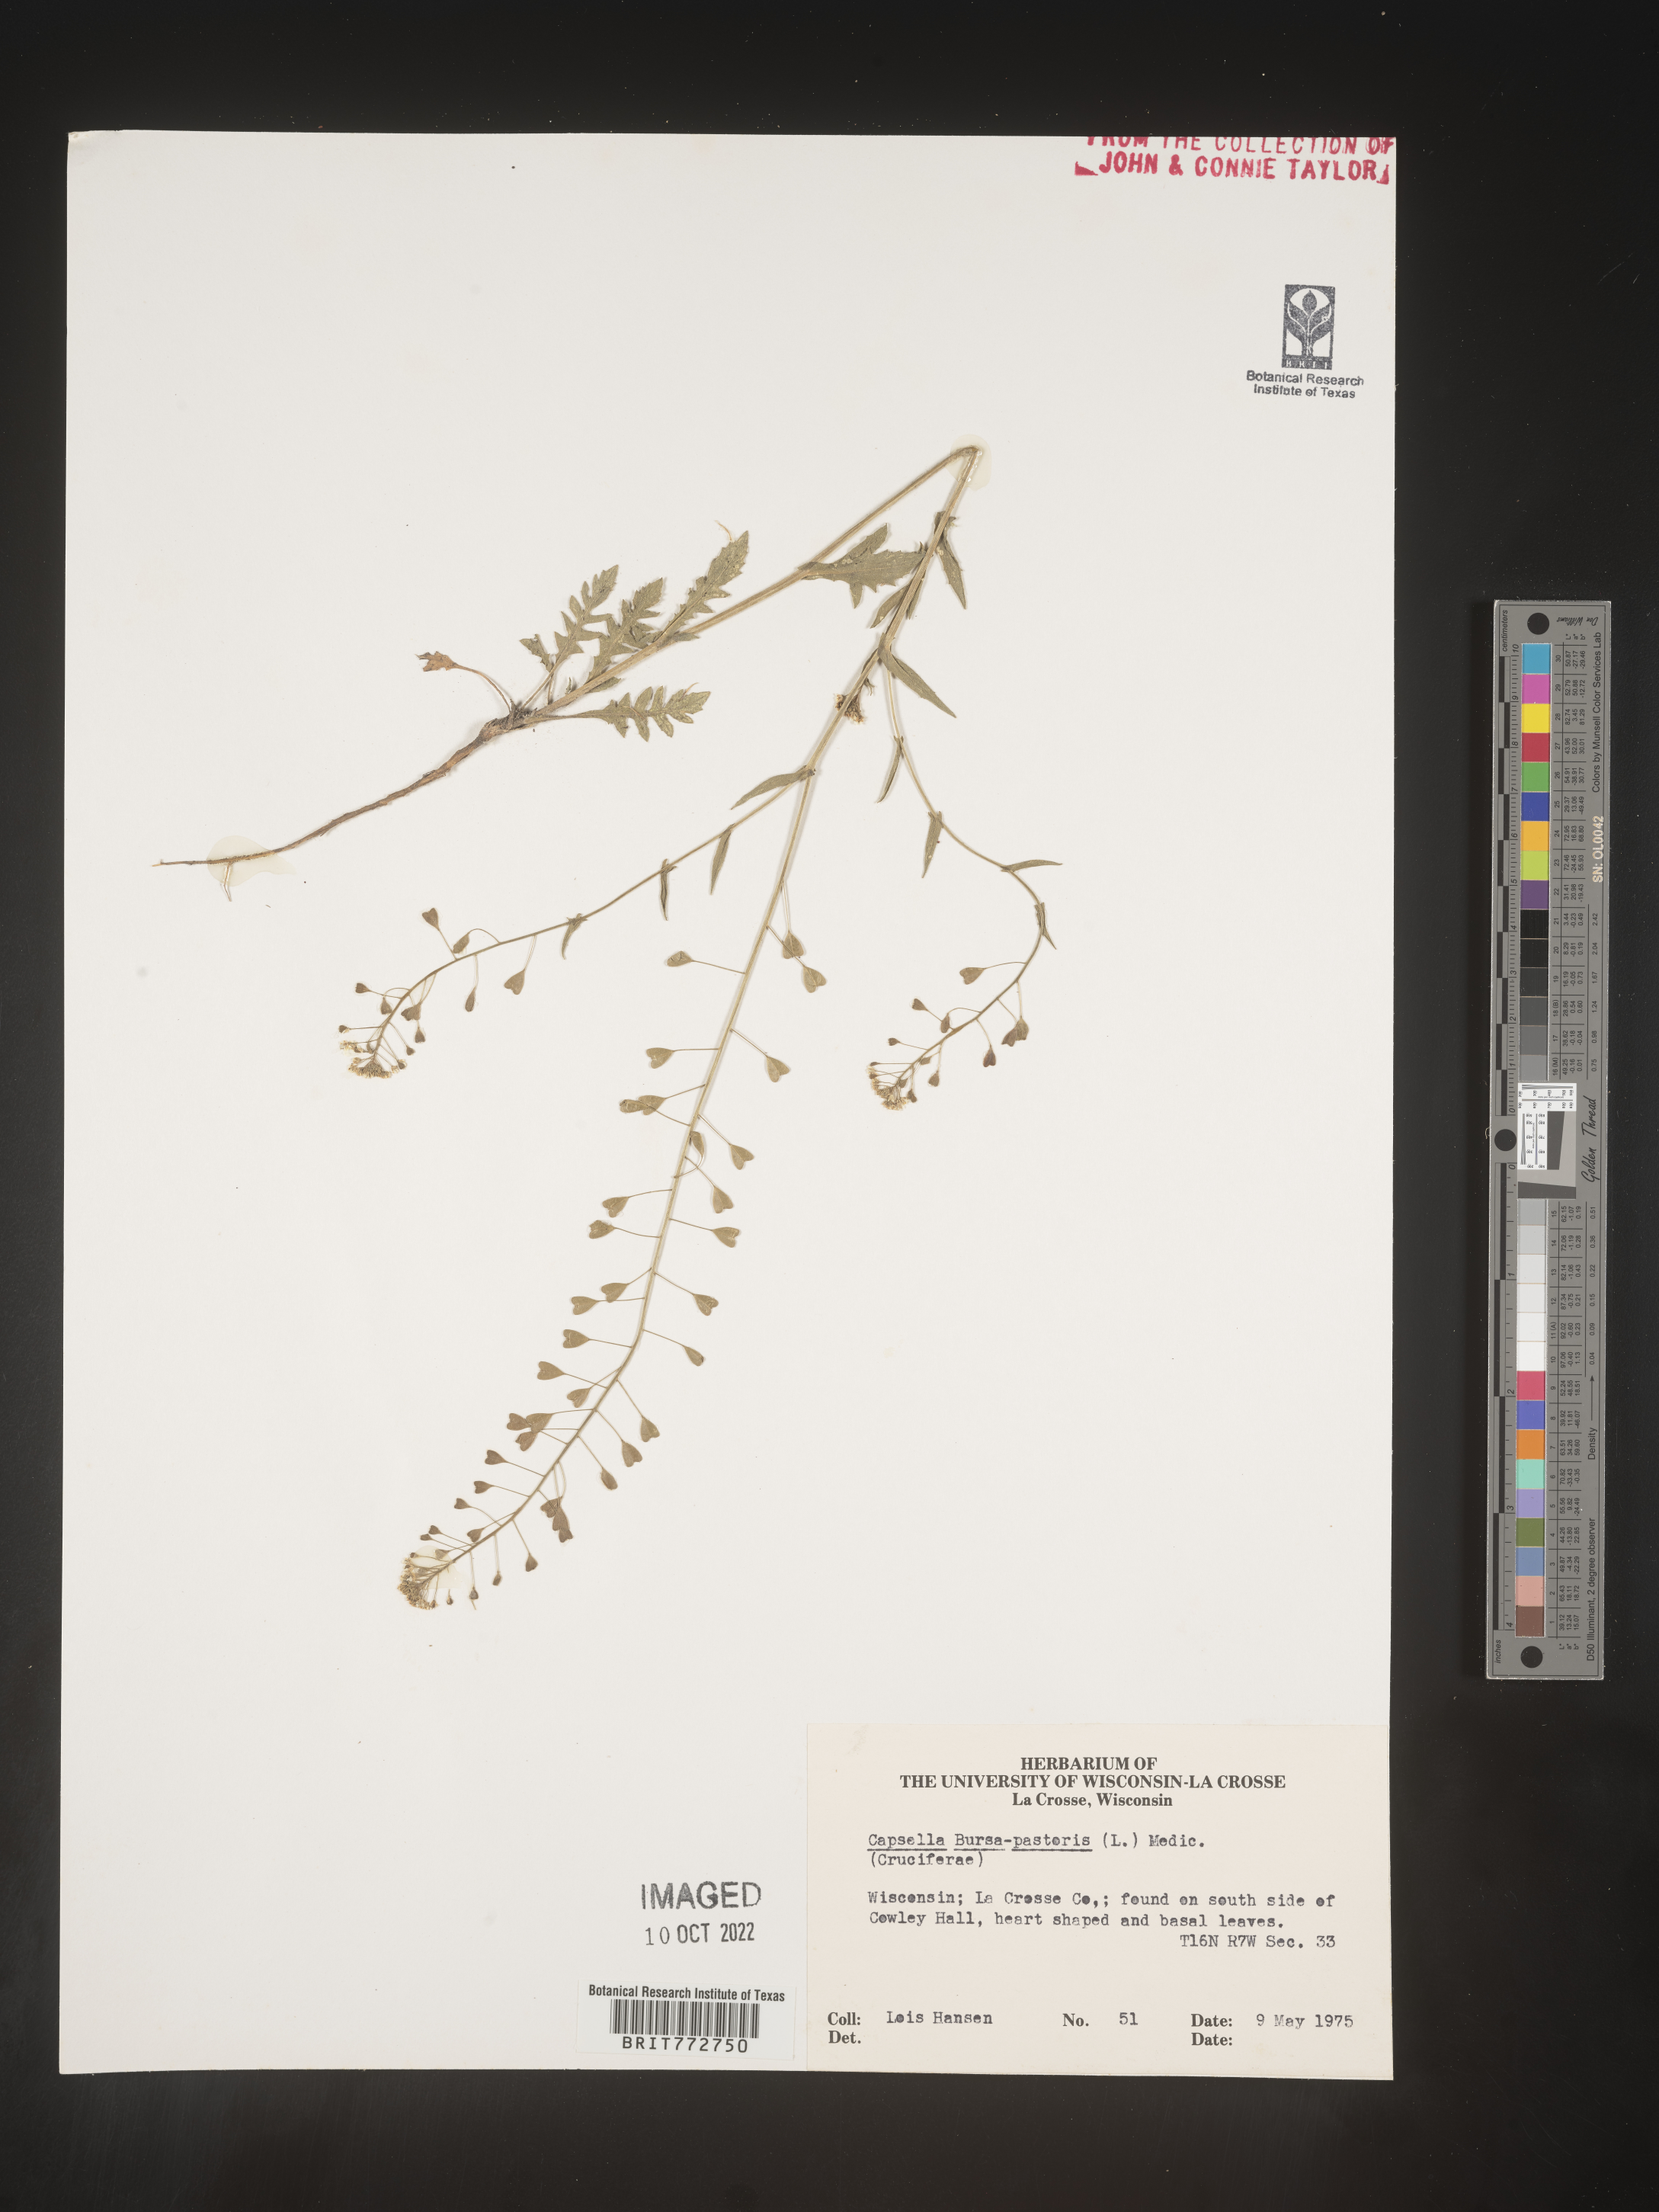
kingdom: Plantae
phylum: Tracheophyta
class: Magnoliopsida
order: Brassicales
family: Brassicaceae
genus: Capsella
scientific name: Capsella bursa-pastoris
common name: Shepherd's purse
